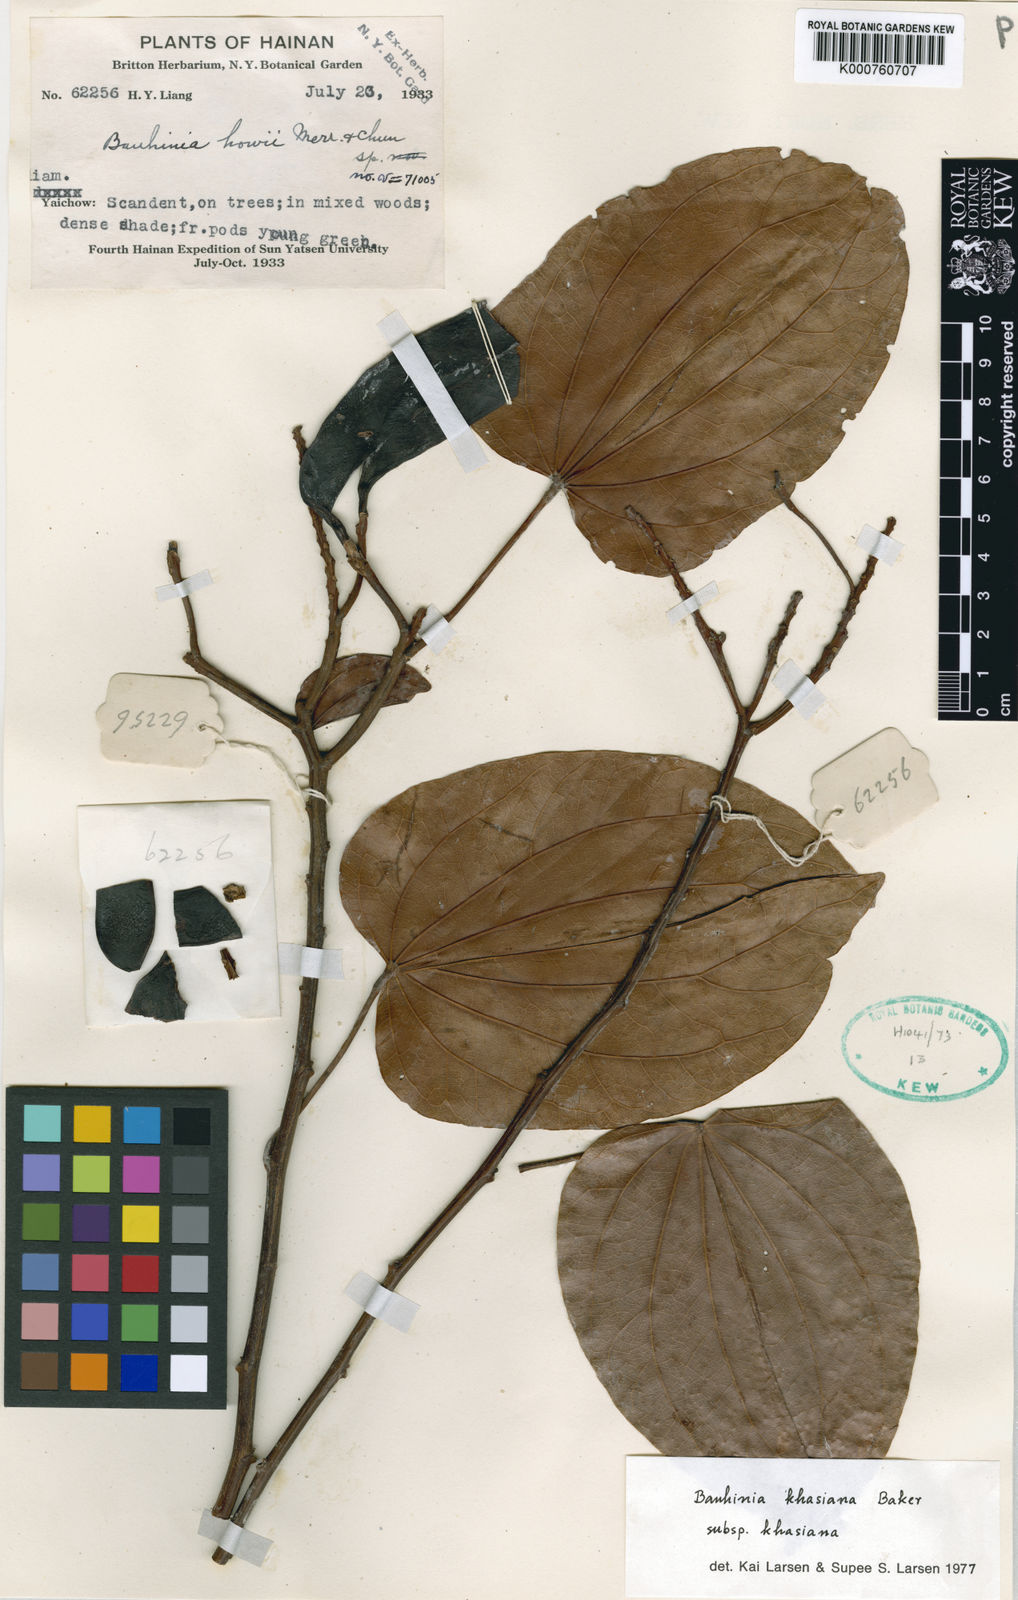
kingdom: Plantae
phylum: Tracheophyta
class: Magnoliopsida
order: Fabales
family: Fabaceae
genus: Phanera
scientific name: Phanera khasiana
